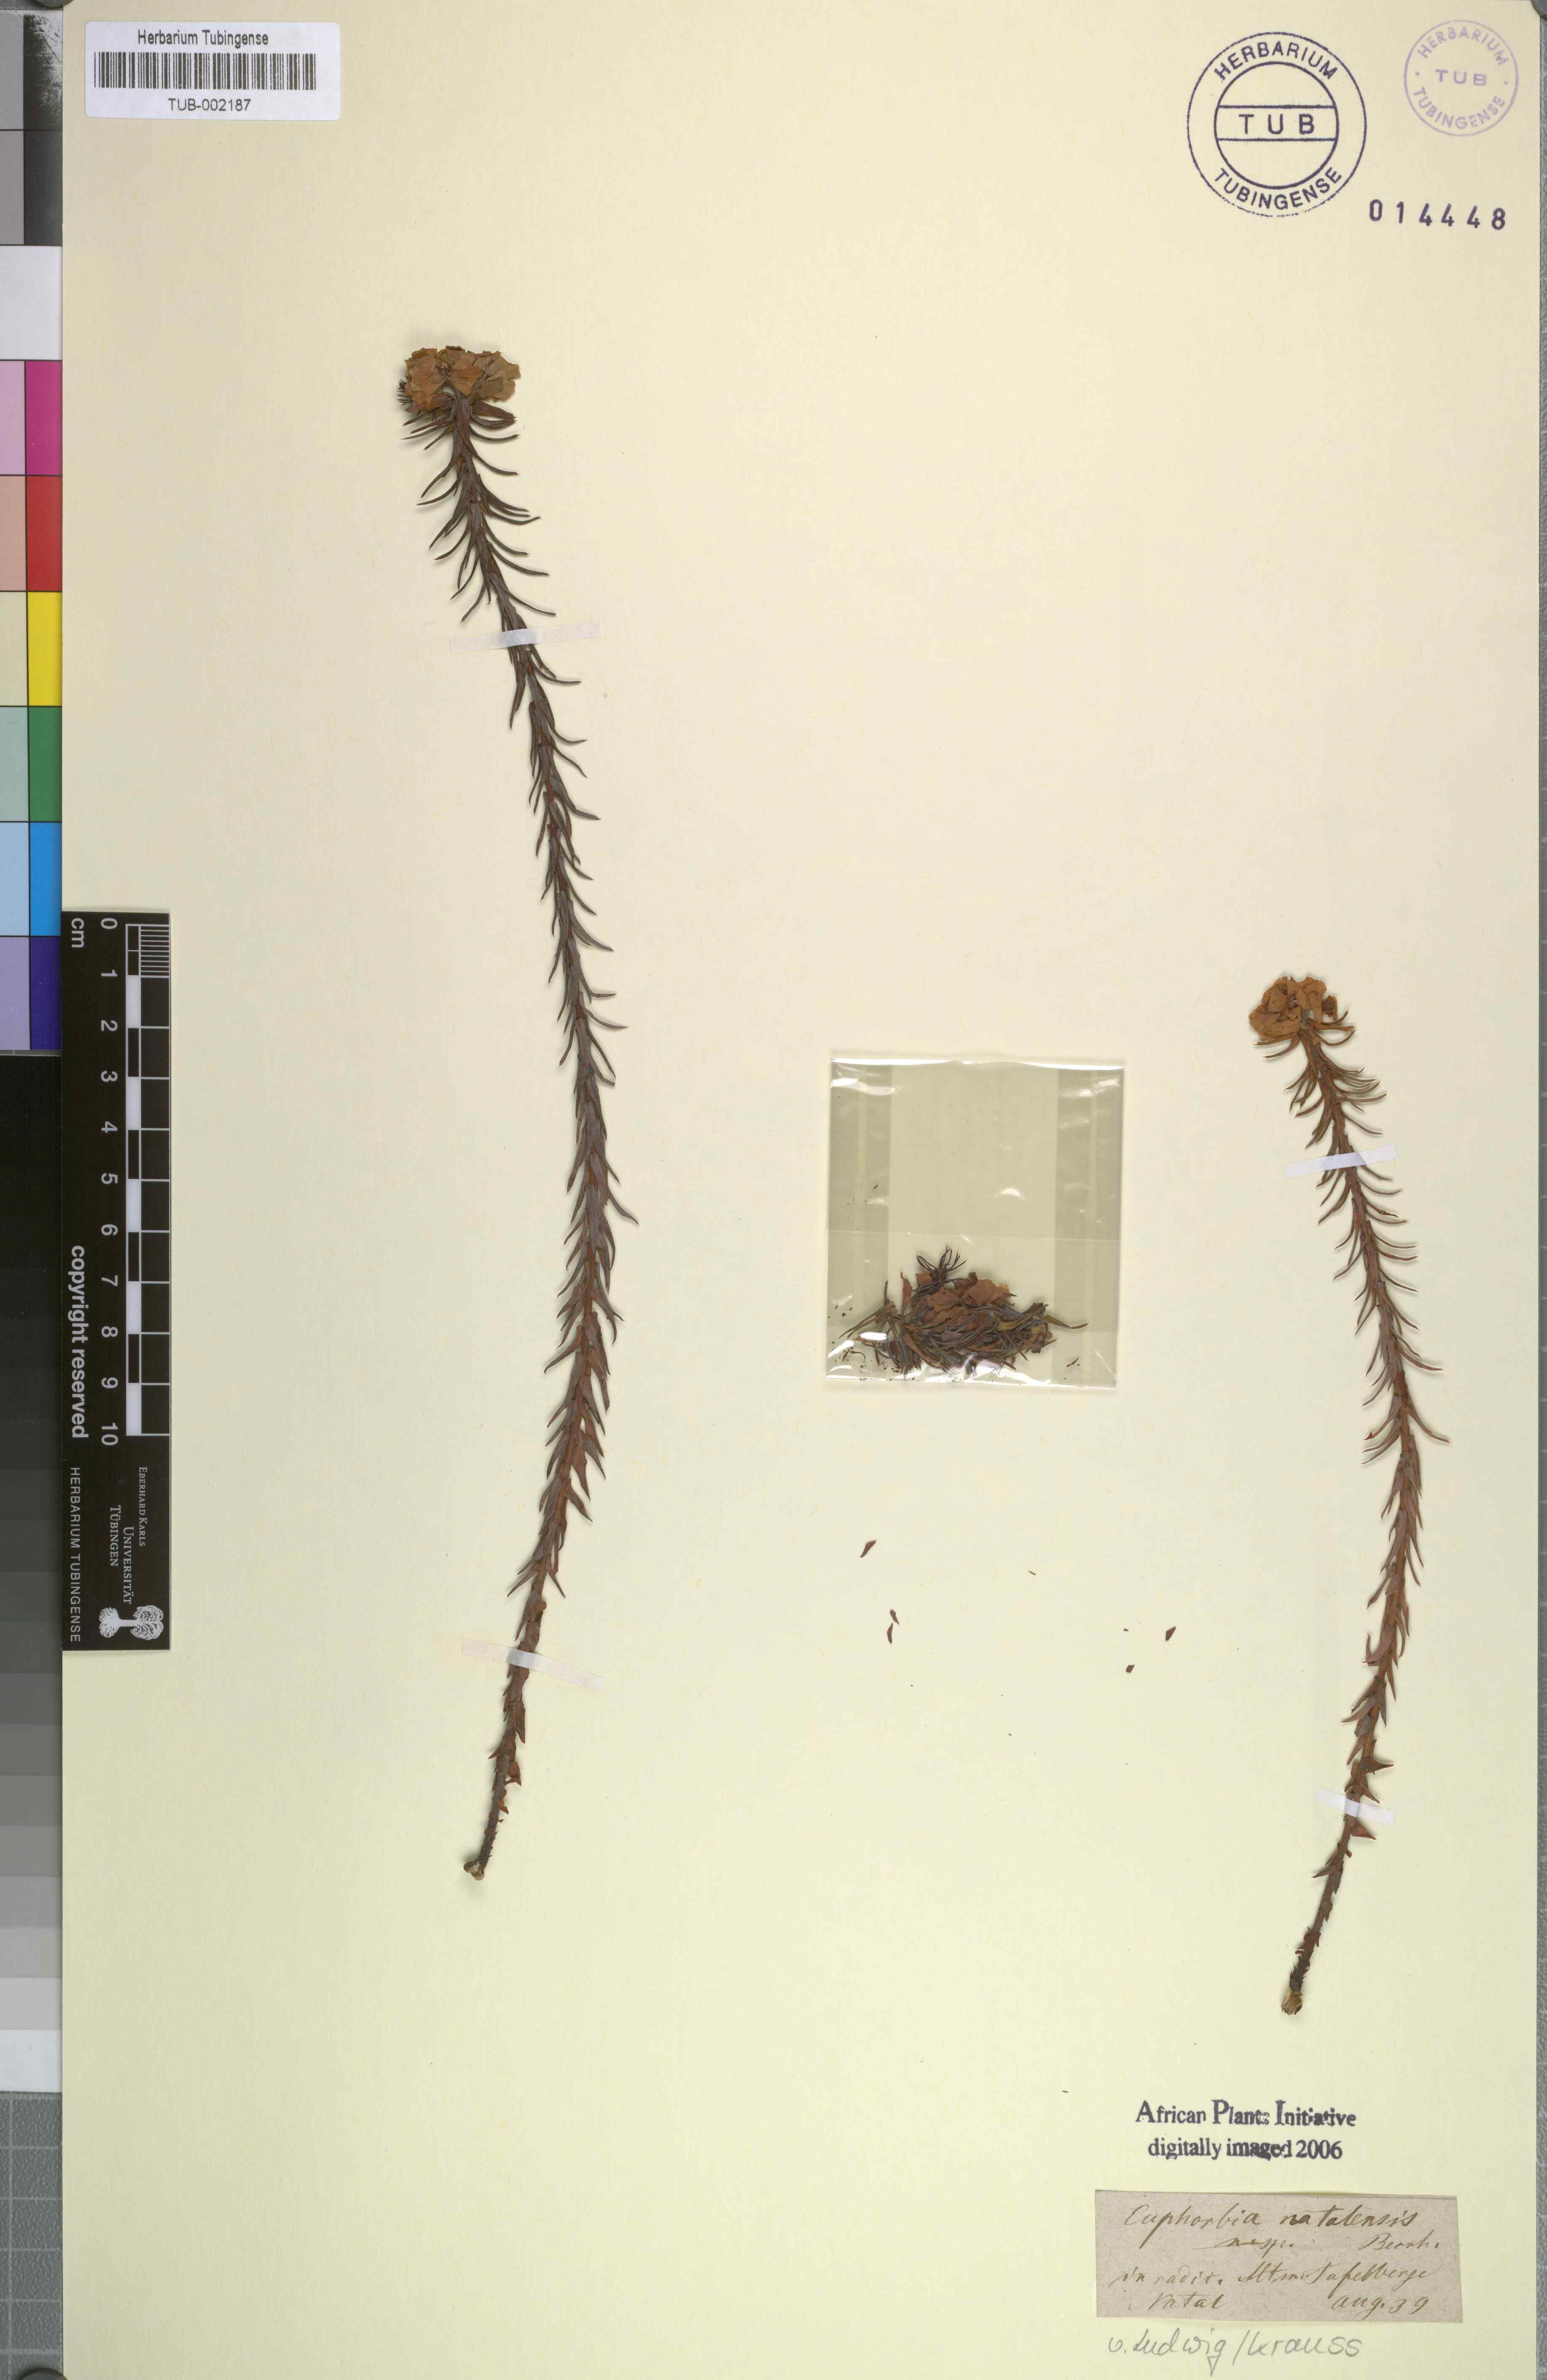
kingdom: Plantae
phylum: Tracheophyta
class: Magnoliopsida
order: Malpighiales
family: Euphorbiaceae
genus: Euphorbia
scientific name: Euphorbia natalensis
